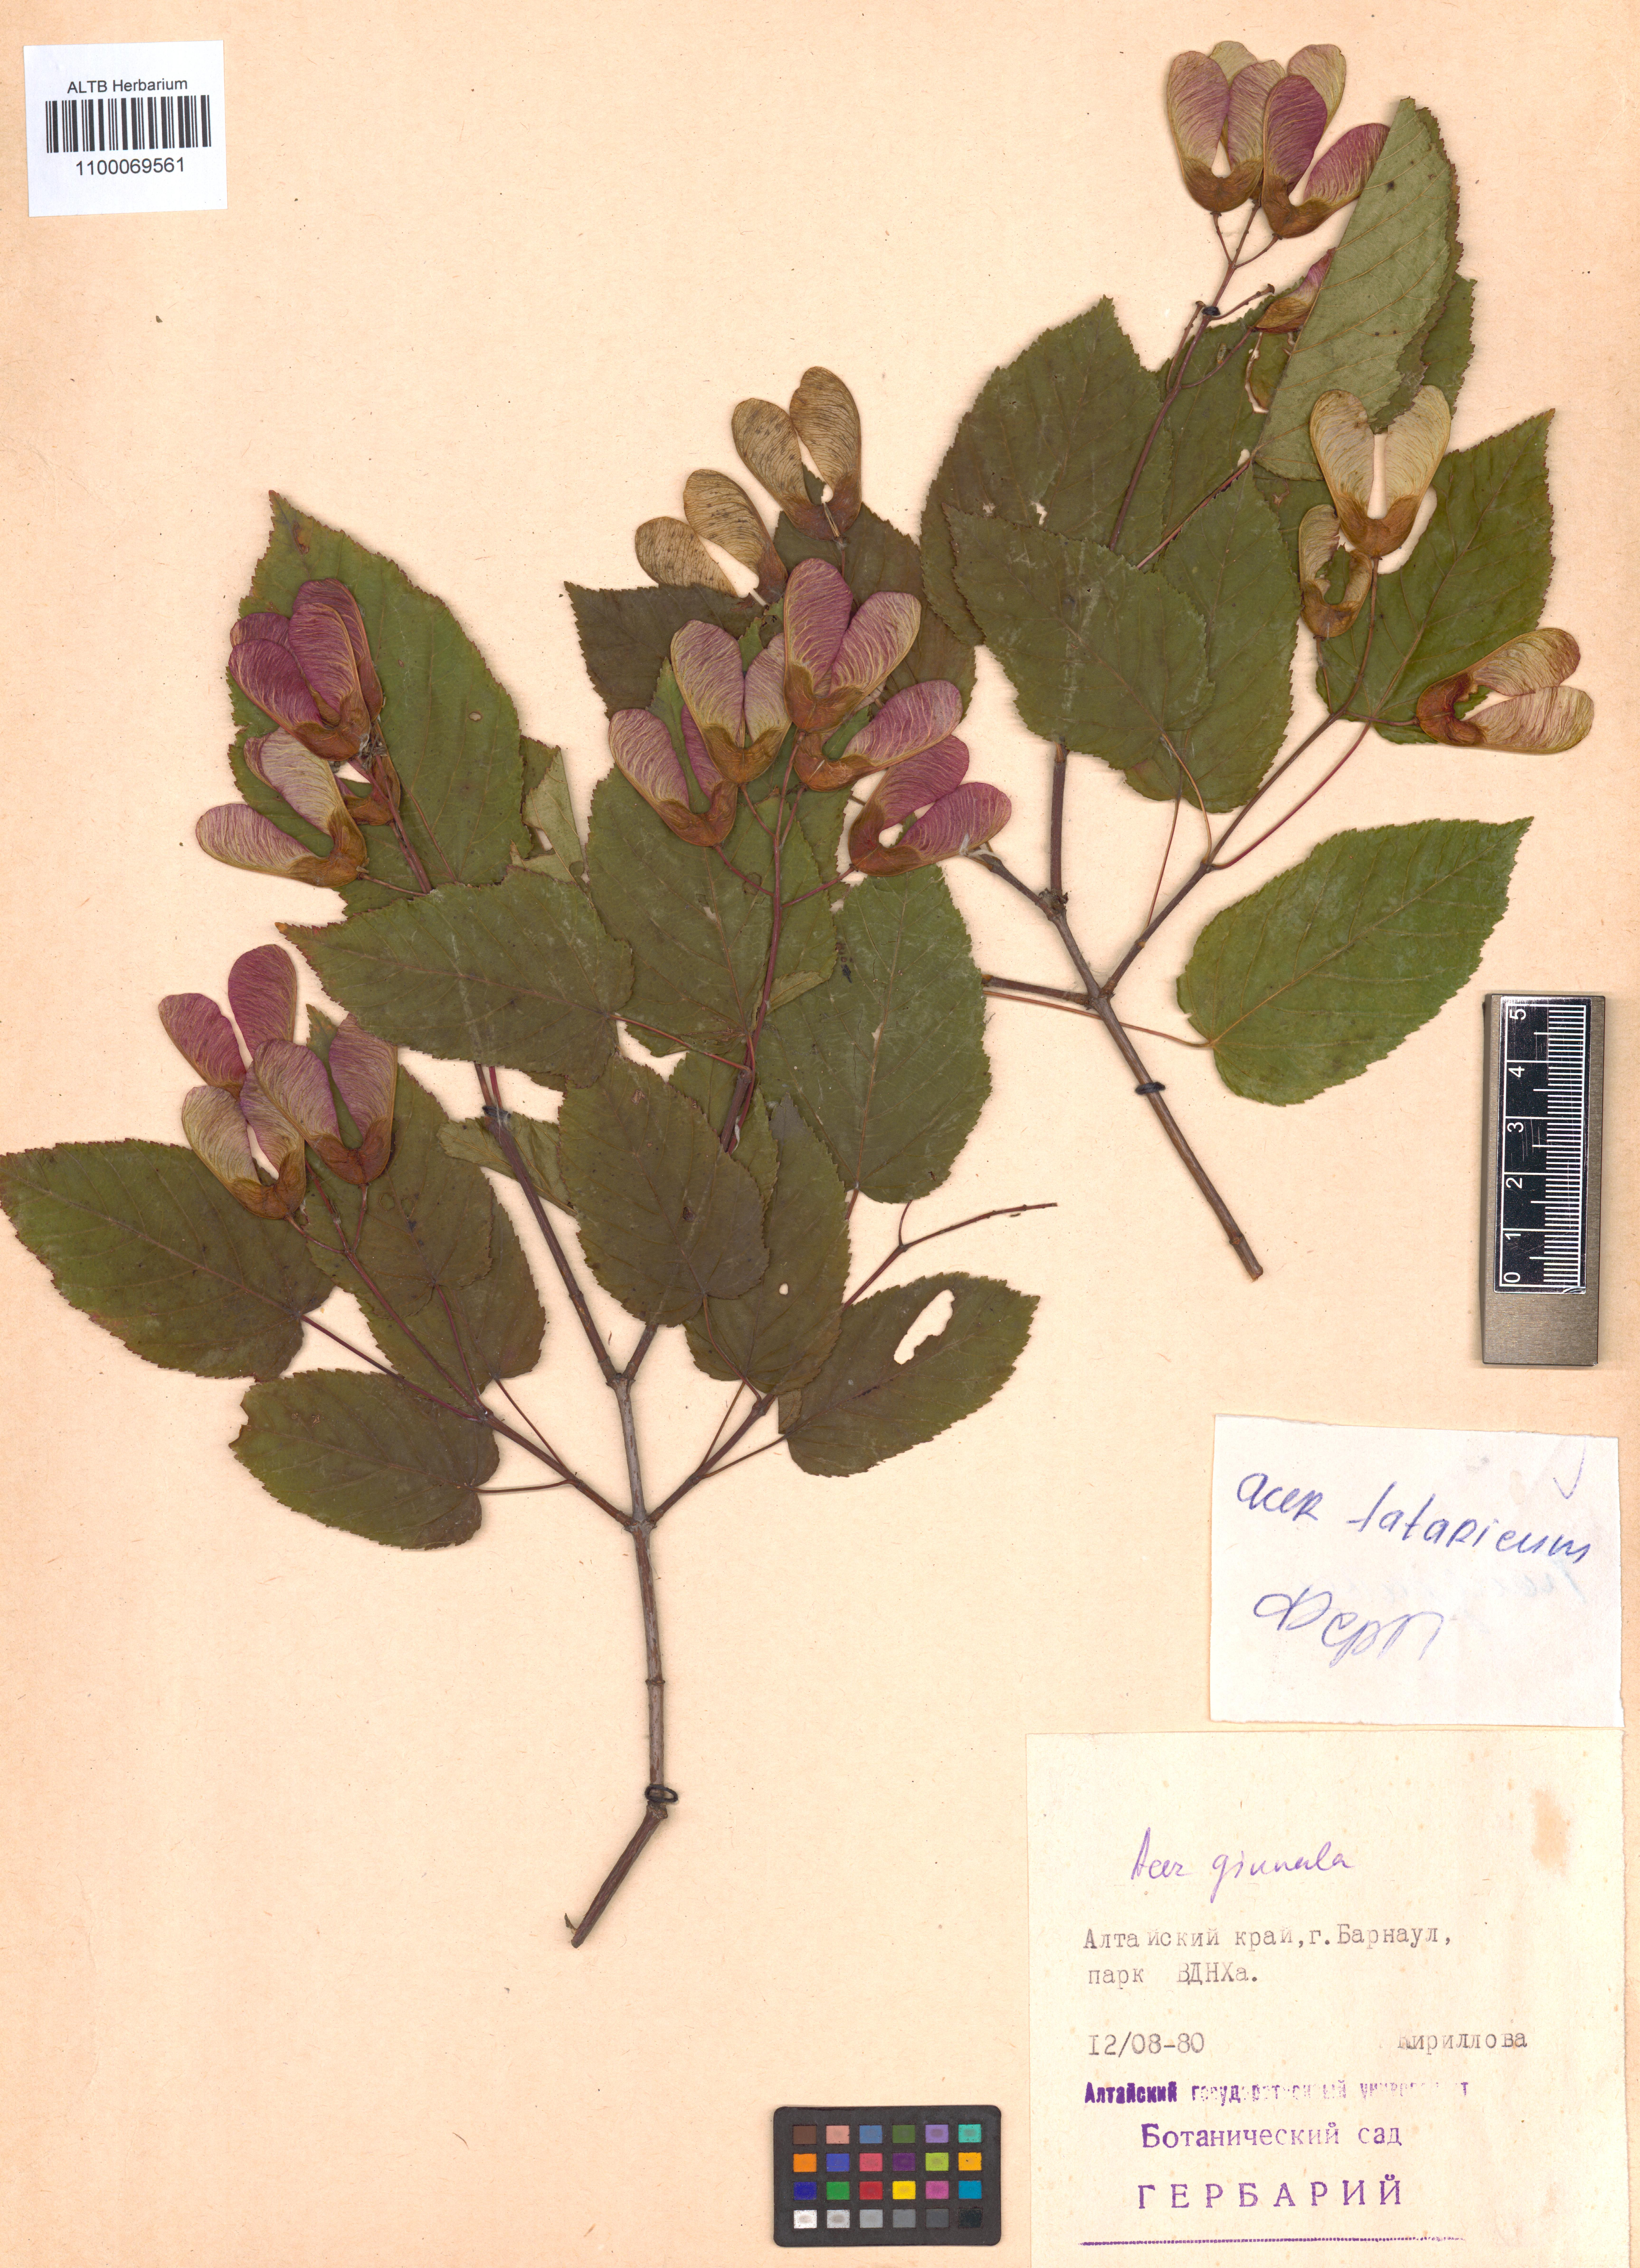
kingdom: Plantae
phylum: Tracheophyta
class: Magnoliopsida
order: Sapindales
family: Sapindaceae
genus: Acer
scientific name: Acer tataricum
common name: Tartar maple
